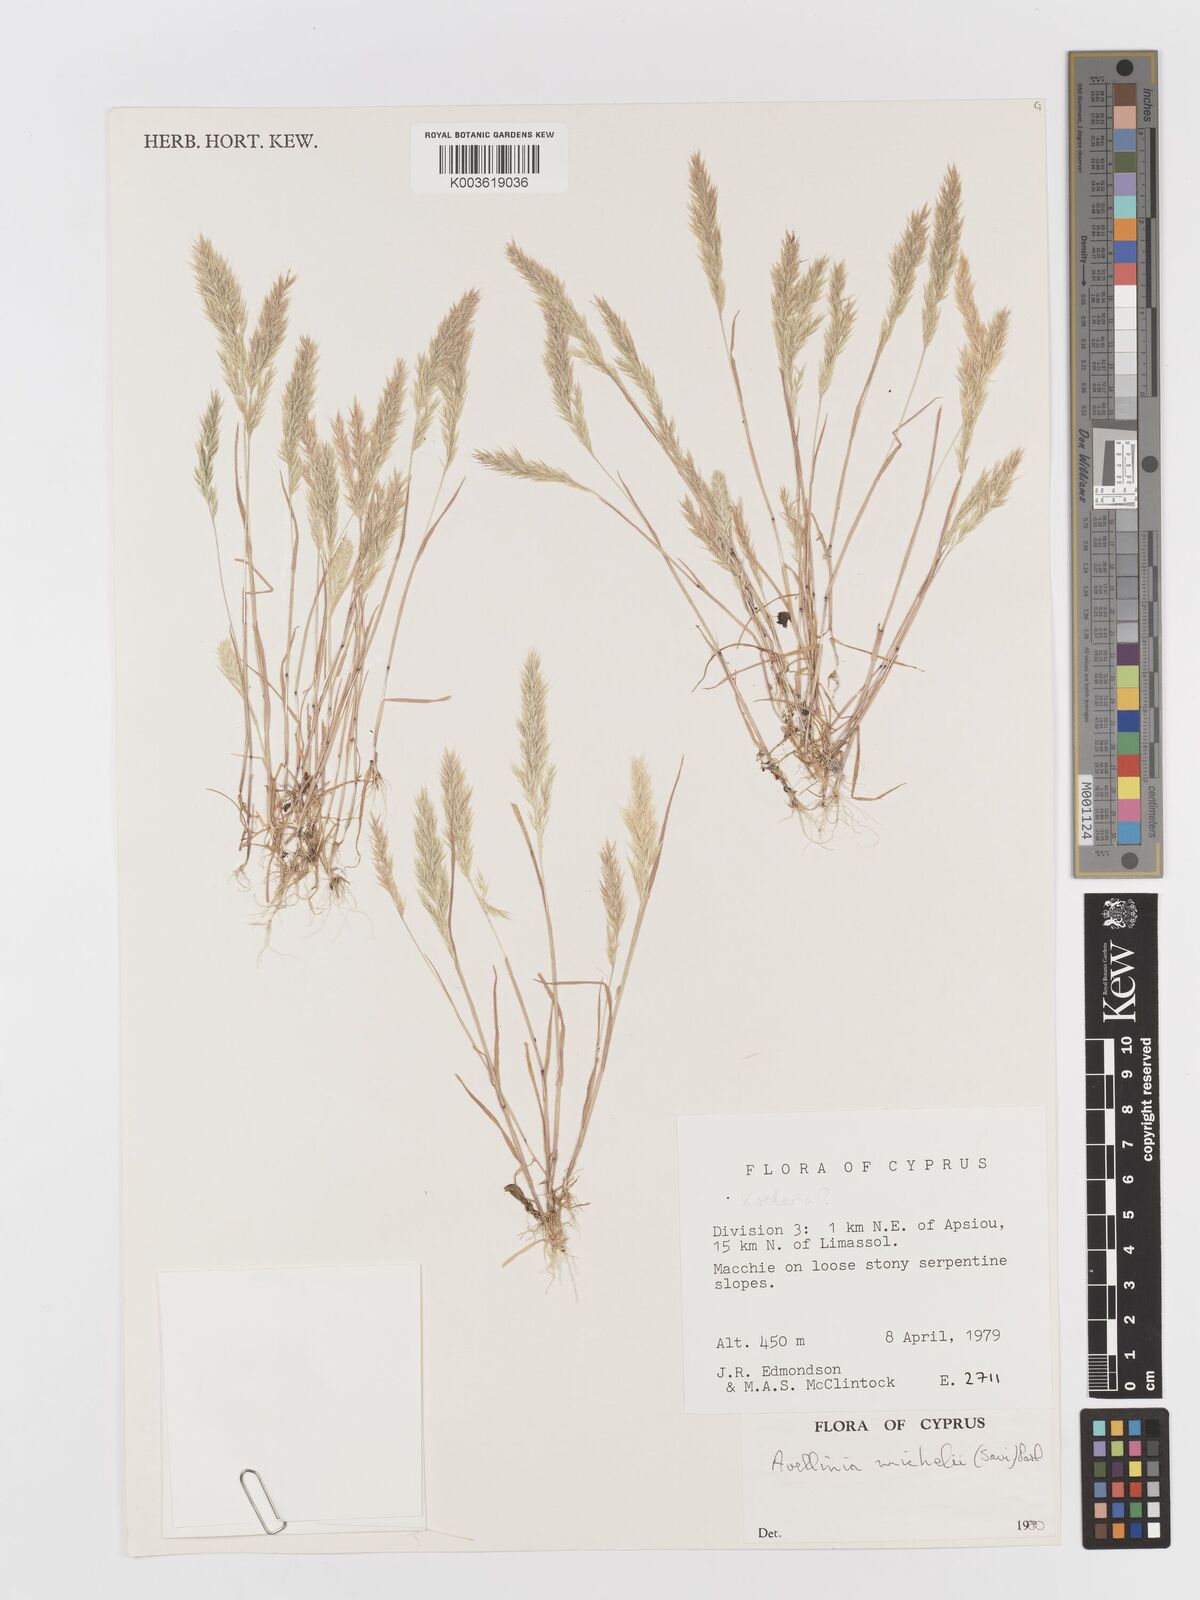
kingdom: Plantae
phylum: Tracheophyta
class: Liliopsida
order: Poales
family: Poaceae
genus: Avellinia
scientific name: Avellinia festucoides
